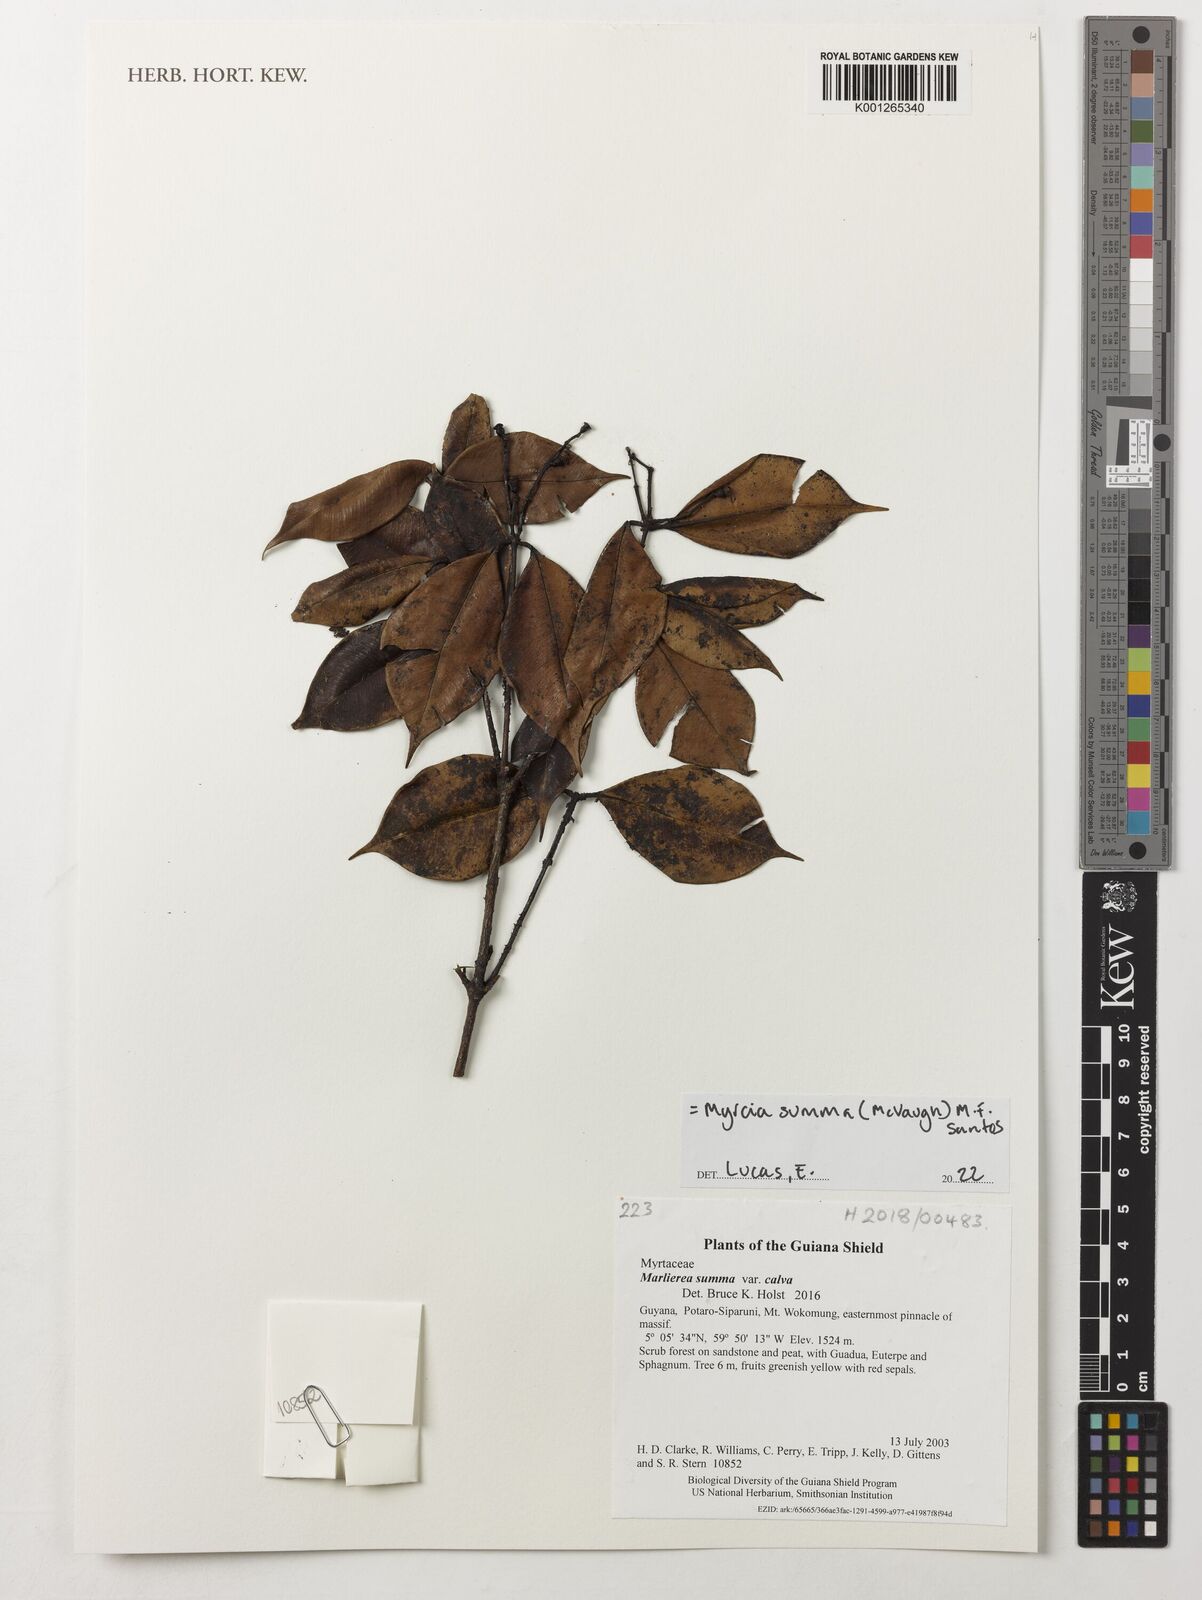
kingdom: Plantae
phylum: Tracheophyta
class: Magnoliopsida
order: Myrtales
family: Myrtaceae
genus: Myrcia
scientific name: Myrcia summa
